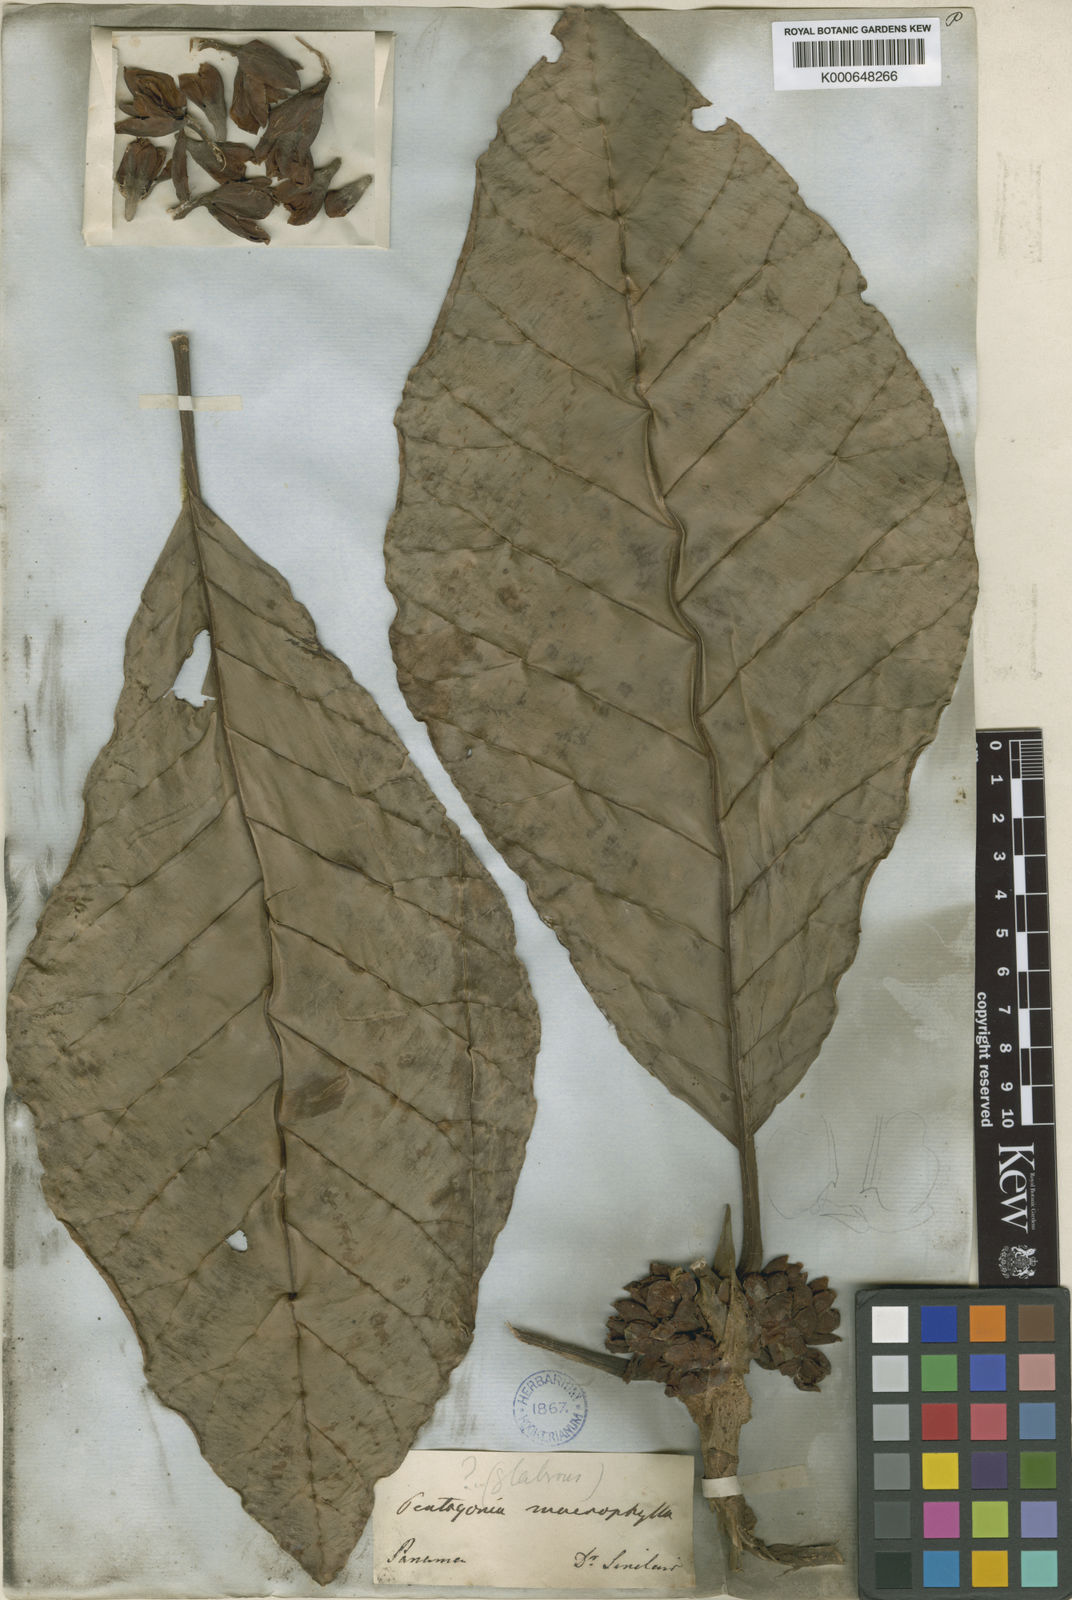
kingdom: Plantae
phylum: Tracheophyta
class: Magnoliopsida
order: Gentianales
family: Rubiaceae
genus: Pentagonia
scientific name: Pentagonia macrophylla
